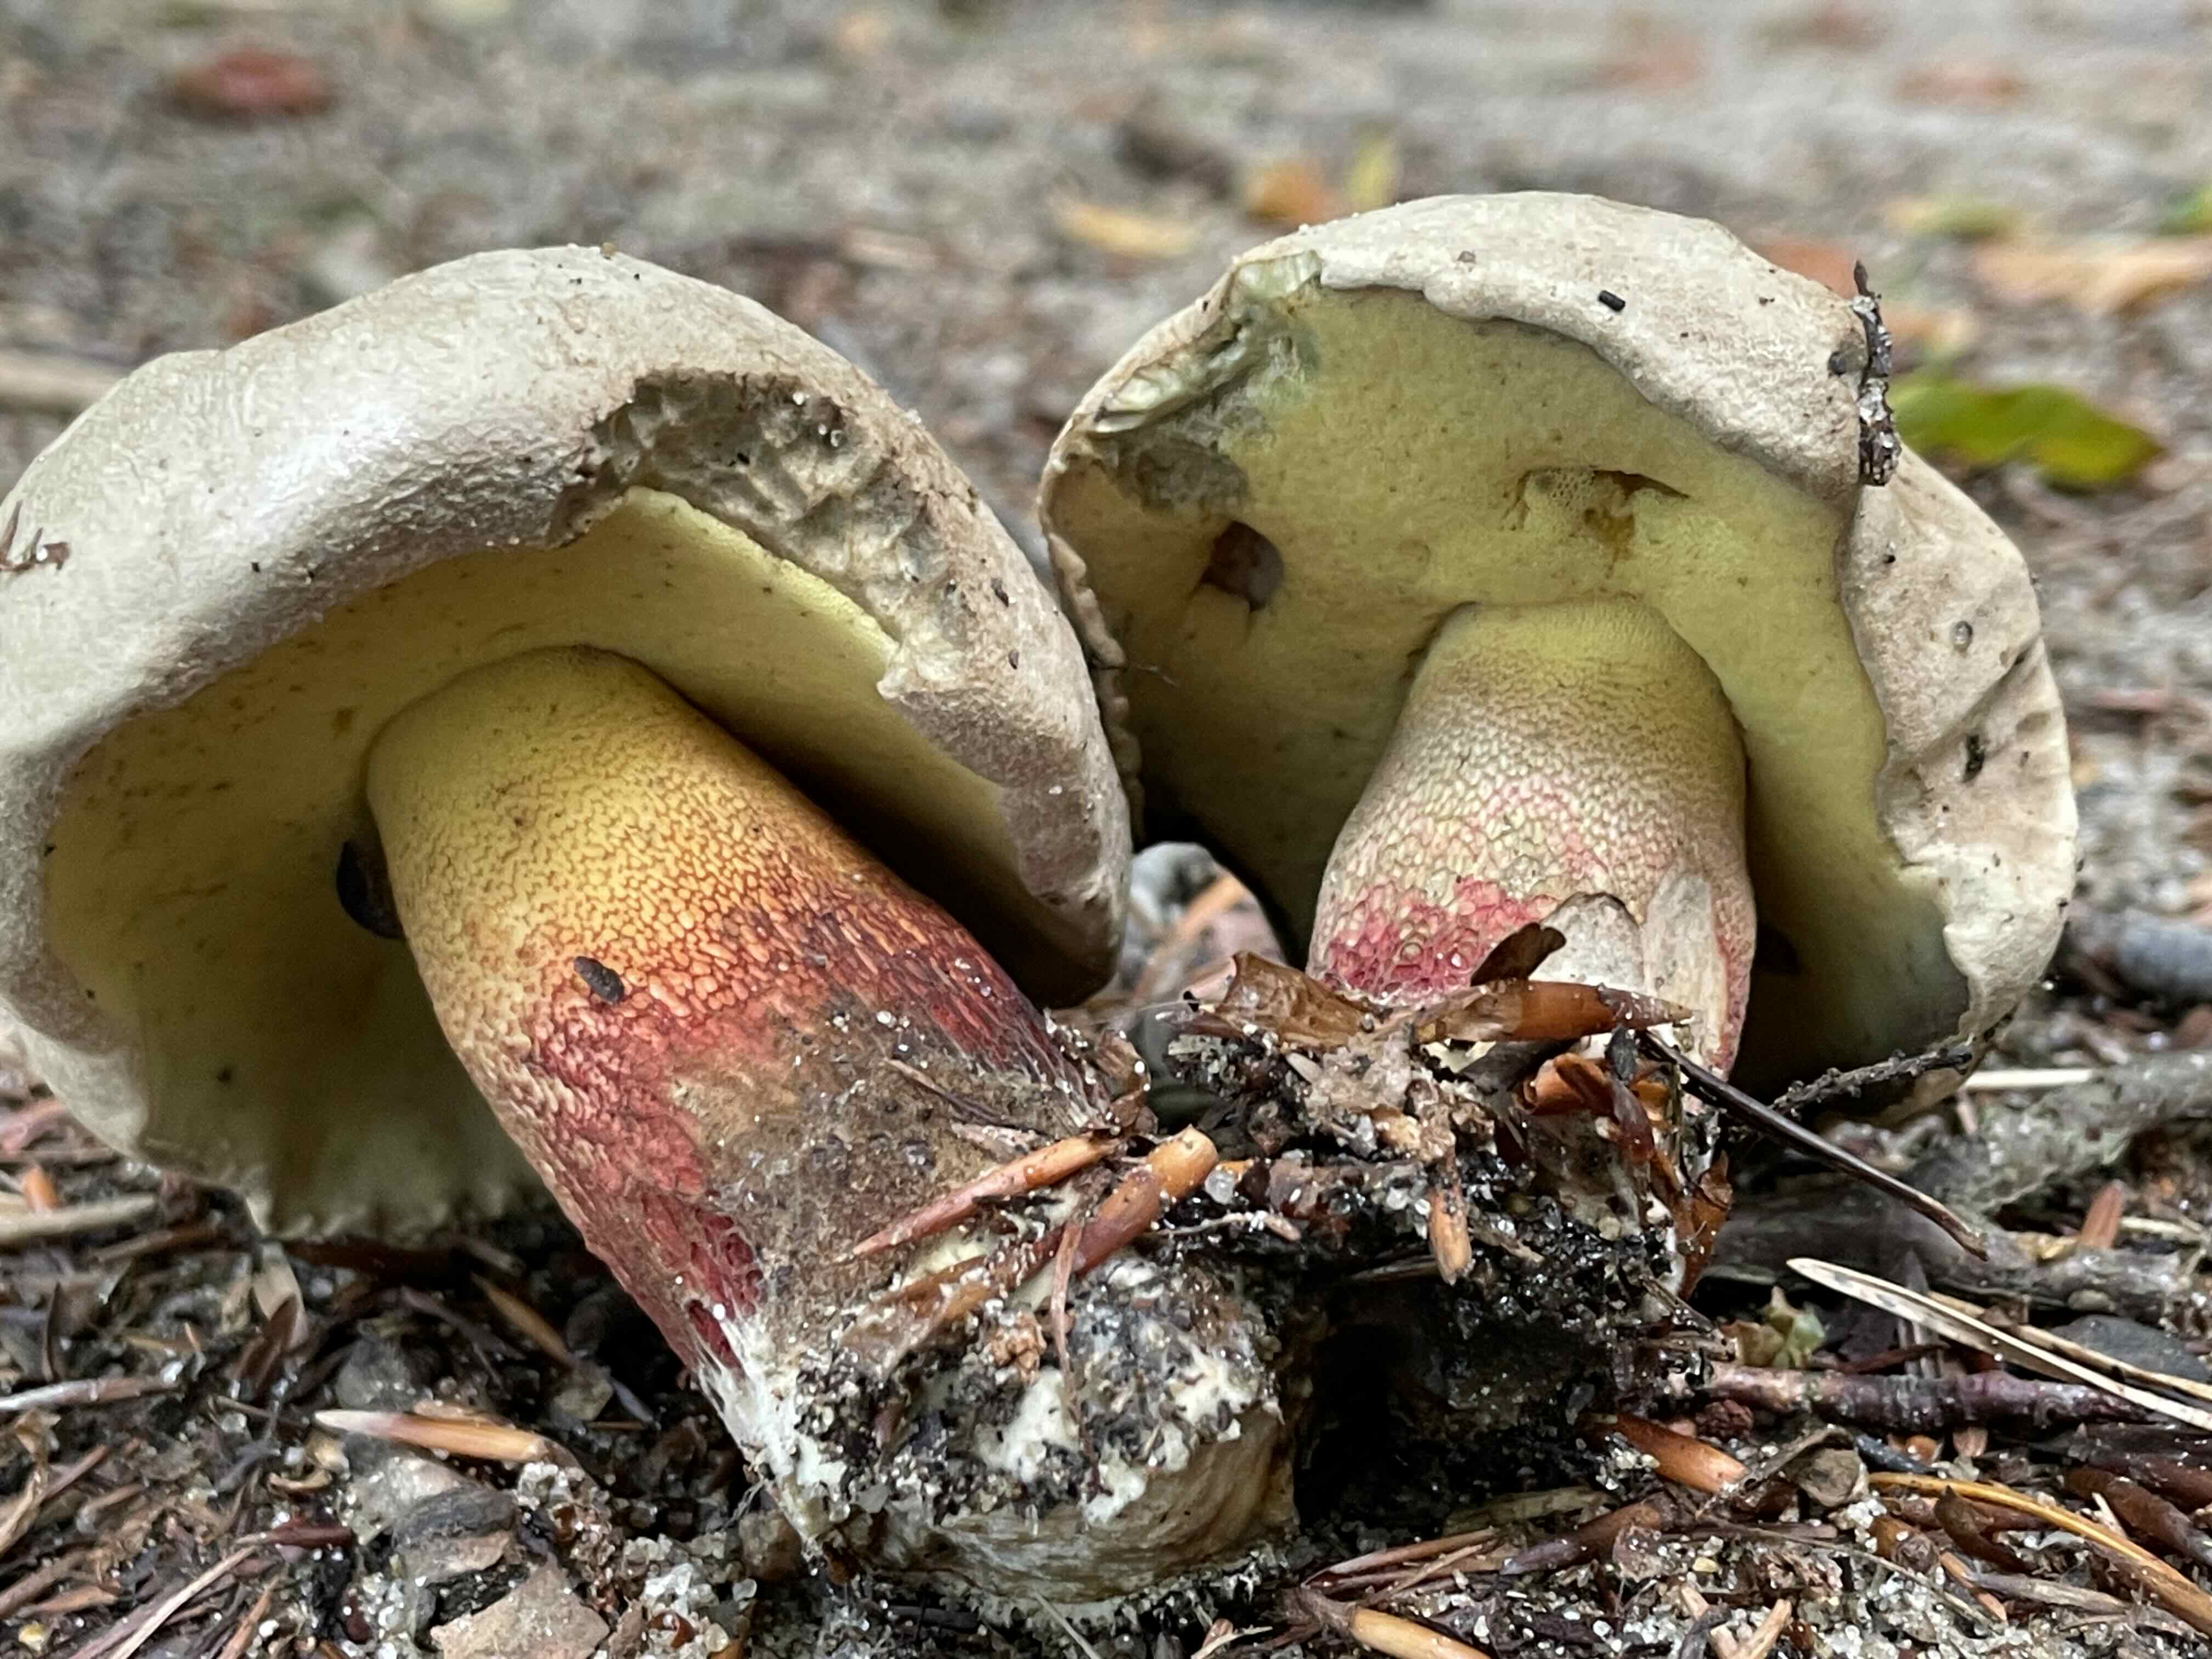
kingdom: Fungi
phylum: Basidiomycota
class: Agaricomycetes
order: Boletales
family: Boletaceae
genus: Caloboletus
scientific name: Caloboletus calopus
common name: skønfodet rørhat
